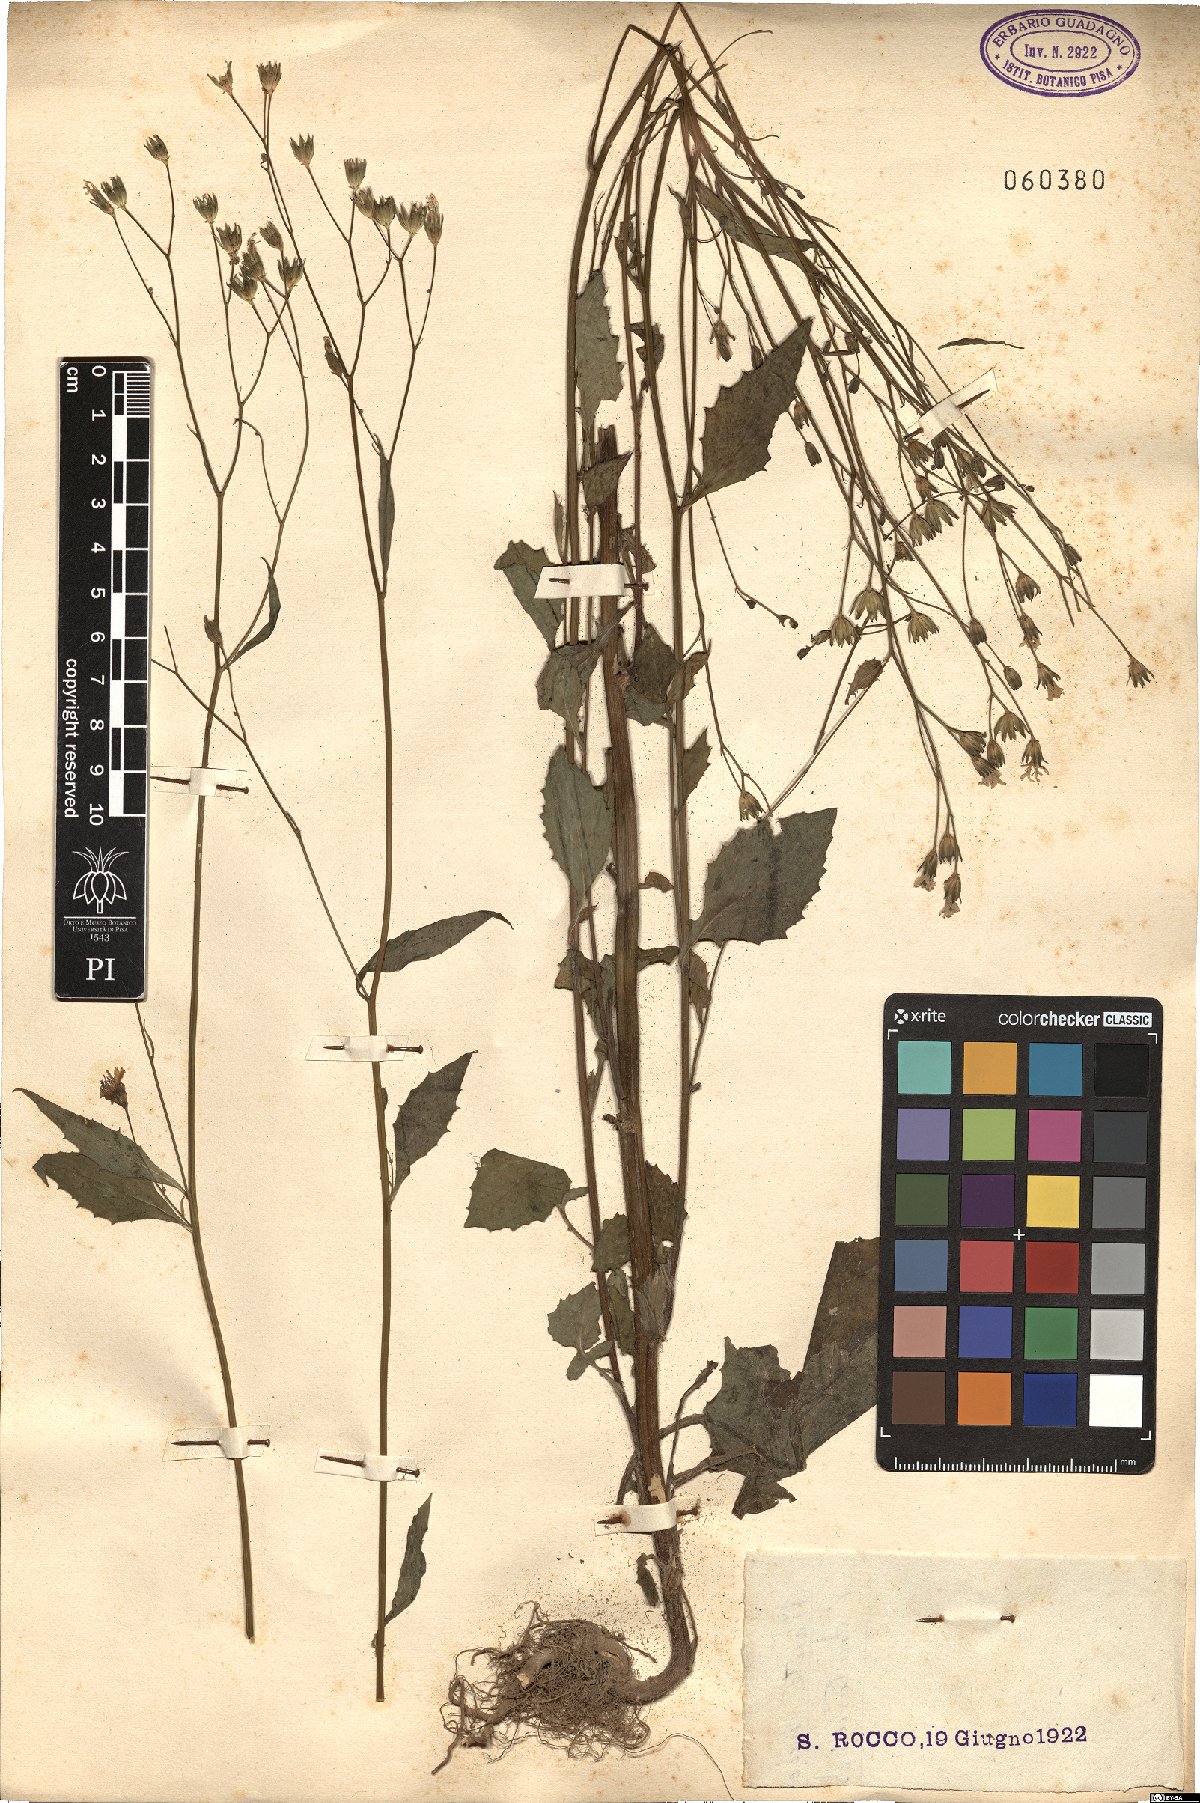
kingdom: Plantae
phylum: Tracheophyta
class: Magnoliopsida
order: Asterales
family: Asteraceae
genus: Lapsana
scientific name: Lapsana communis
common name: Nipplewort
